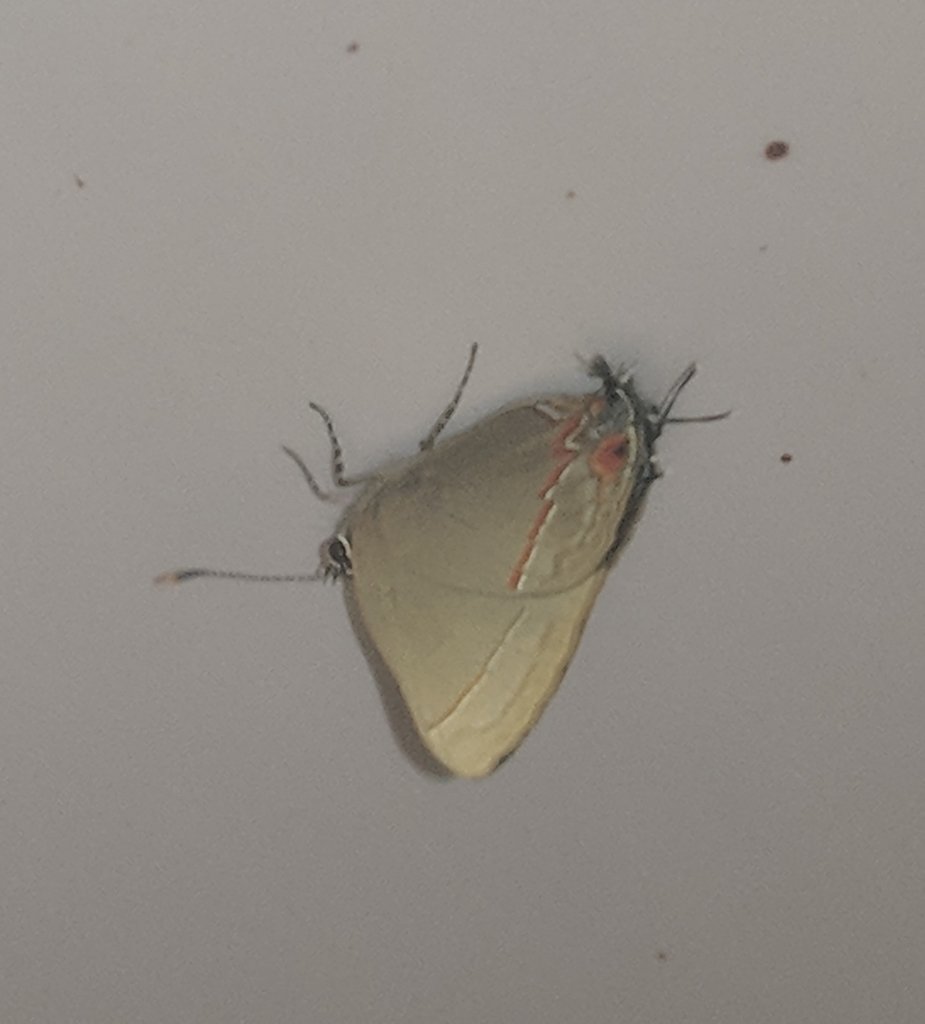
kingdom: Animalia
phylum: Arthropoda
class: Insecta
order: Lepidoptera
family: Lycaenidae
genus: Electrostrymon
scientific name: Electrostrymon endymion
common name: Ruddy Hairstreak
